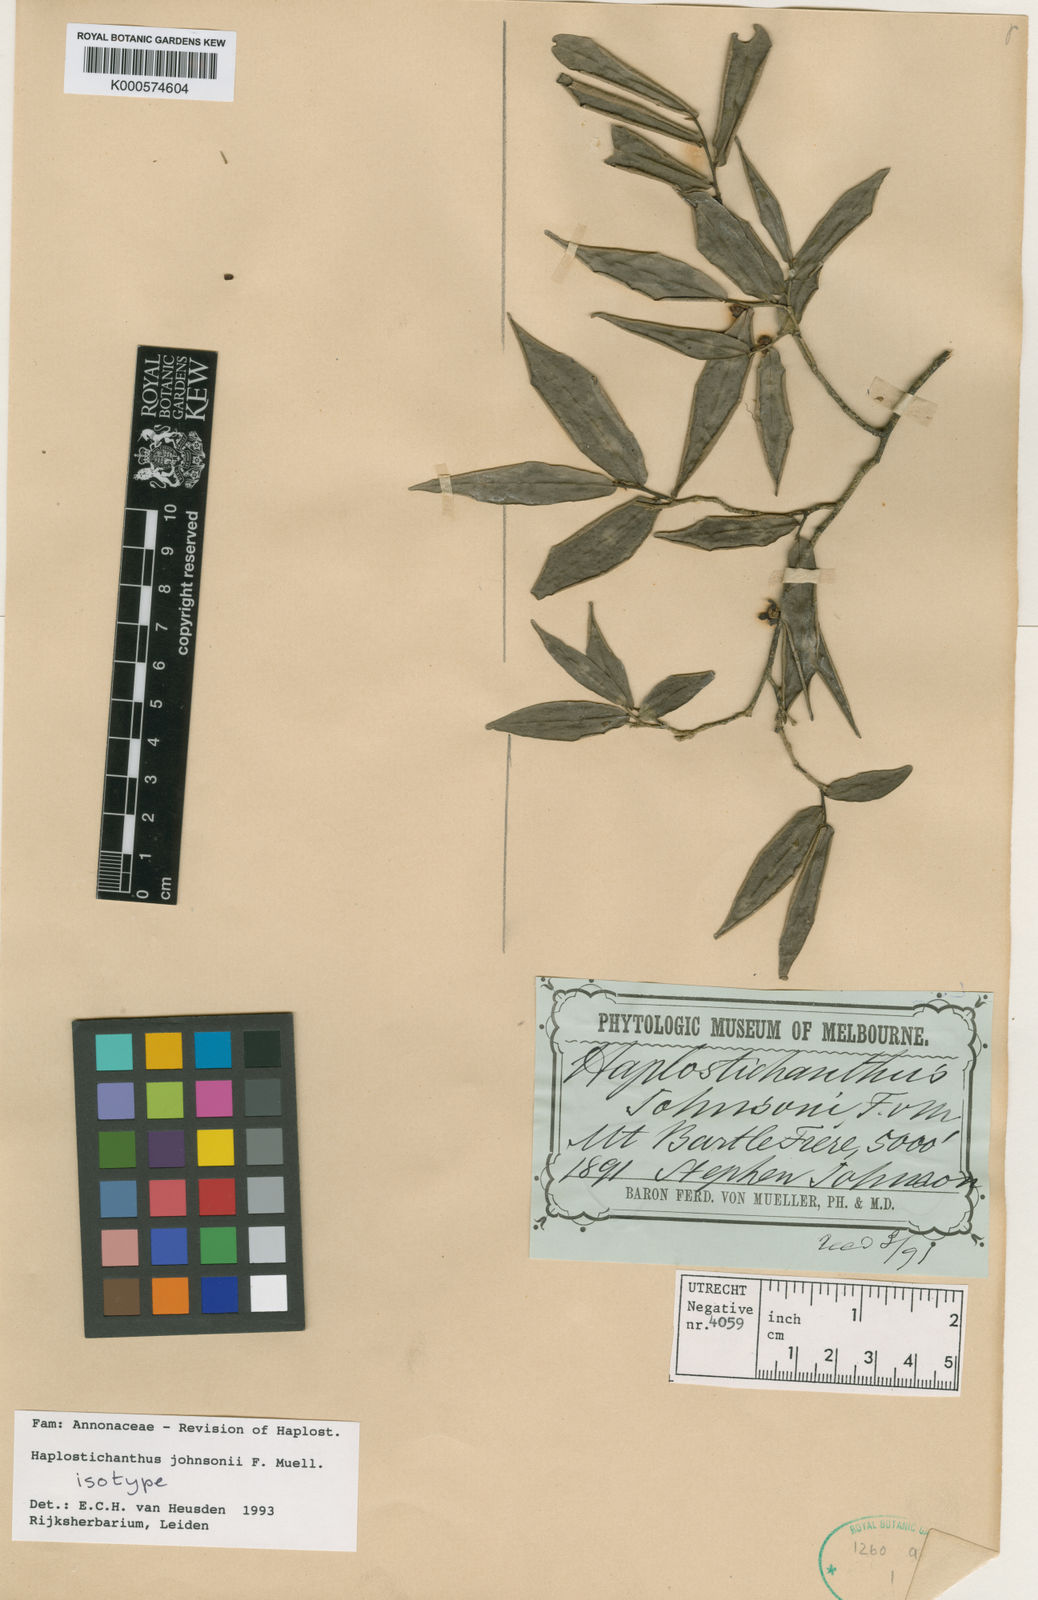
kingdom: Plantae
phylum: Tracheophyta
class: Magnoliopsida
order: Magnoliales
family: Annonaceae
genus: Haplostichanthus
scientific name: Haplostichanthus johnsonii
